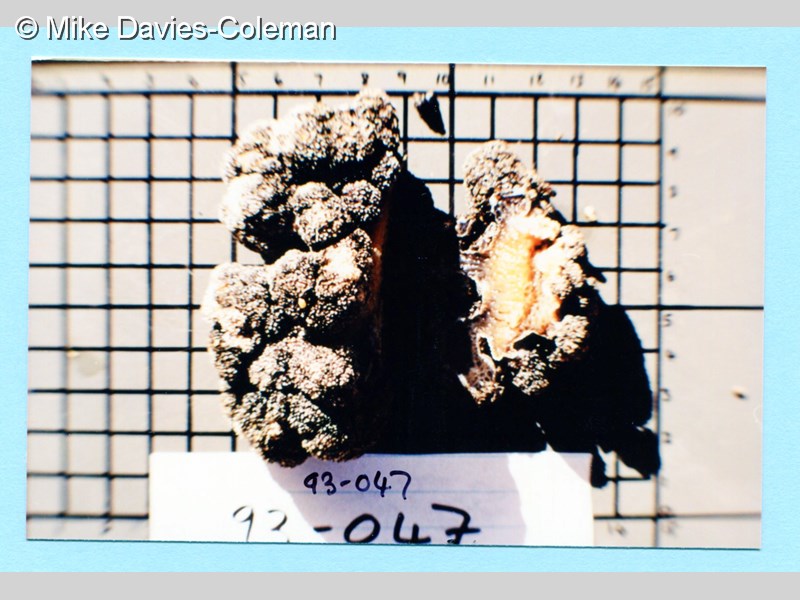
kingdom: Animalia
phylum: Cnidaria
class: Anthozoa
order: Malacalcyonacea
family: Capnellidae
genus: Eunephthya
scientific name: Eunephthya thyrsoidea
